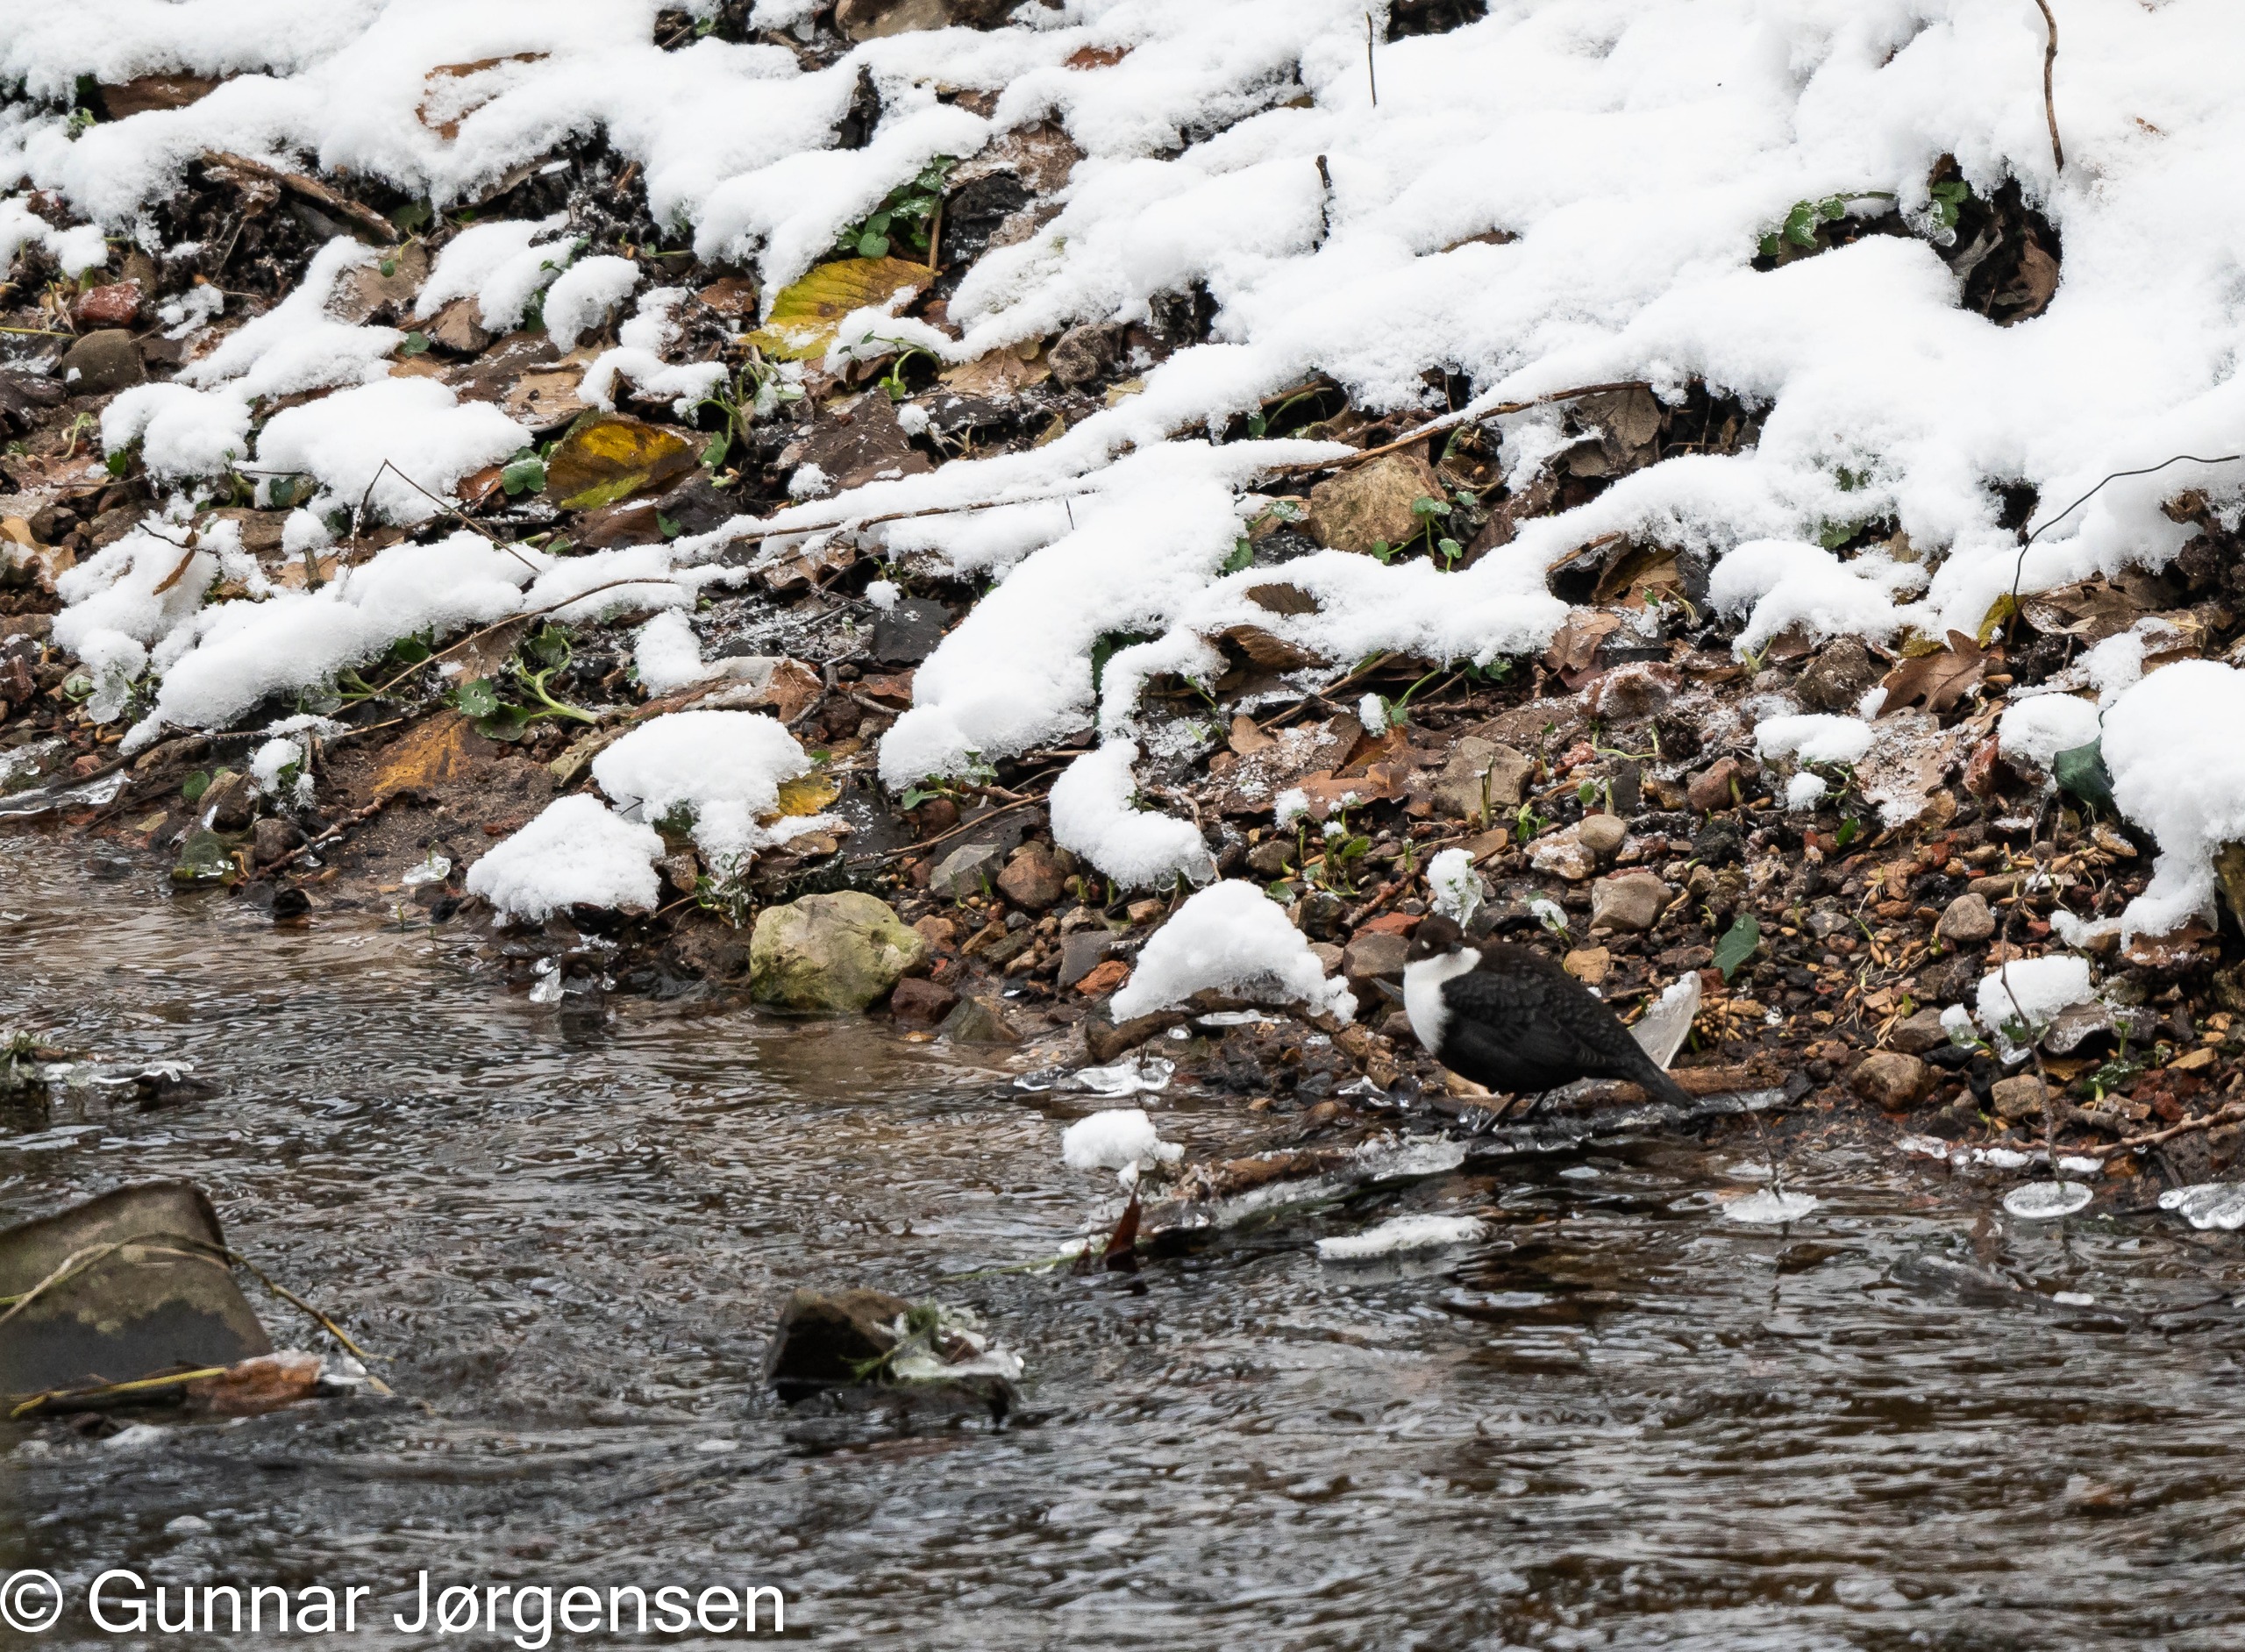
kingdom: Animalia
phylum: Chordata
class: Aves
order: Passeriformes
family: Cinclidae
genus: Cinclus
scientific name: Cinclus cinclus
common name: Vandstær
